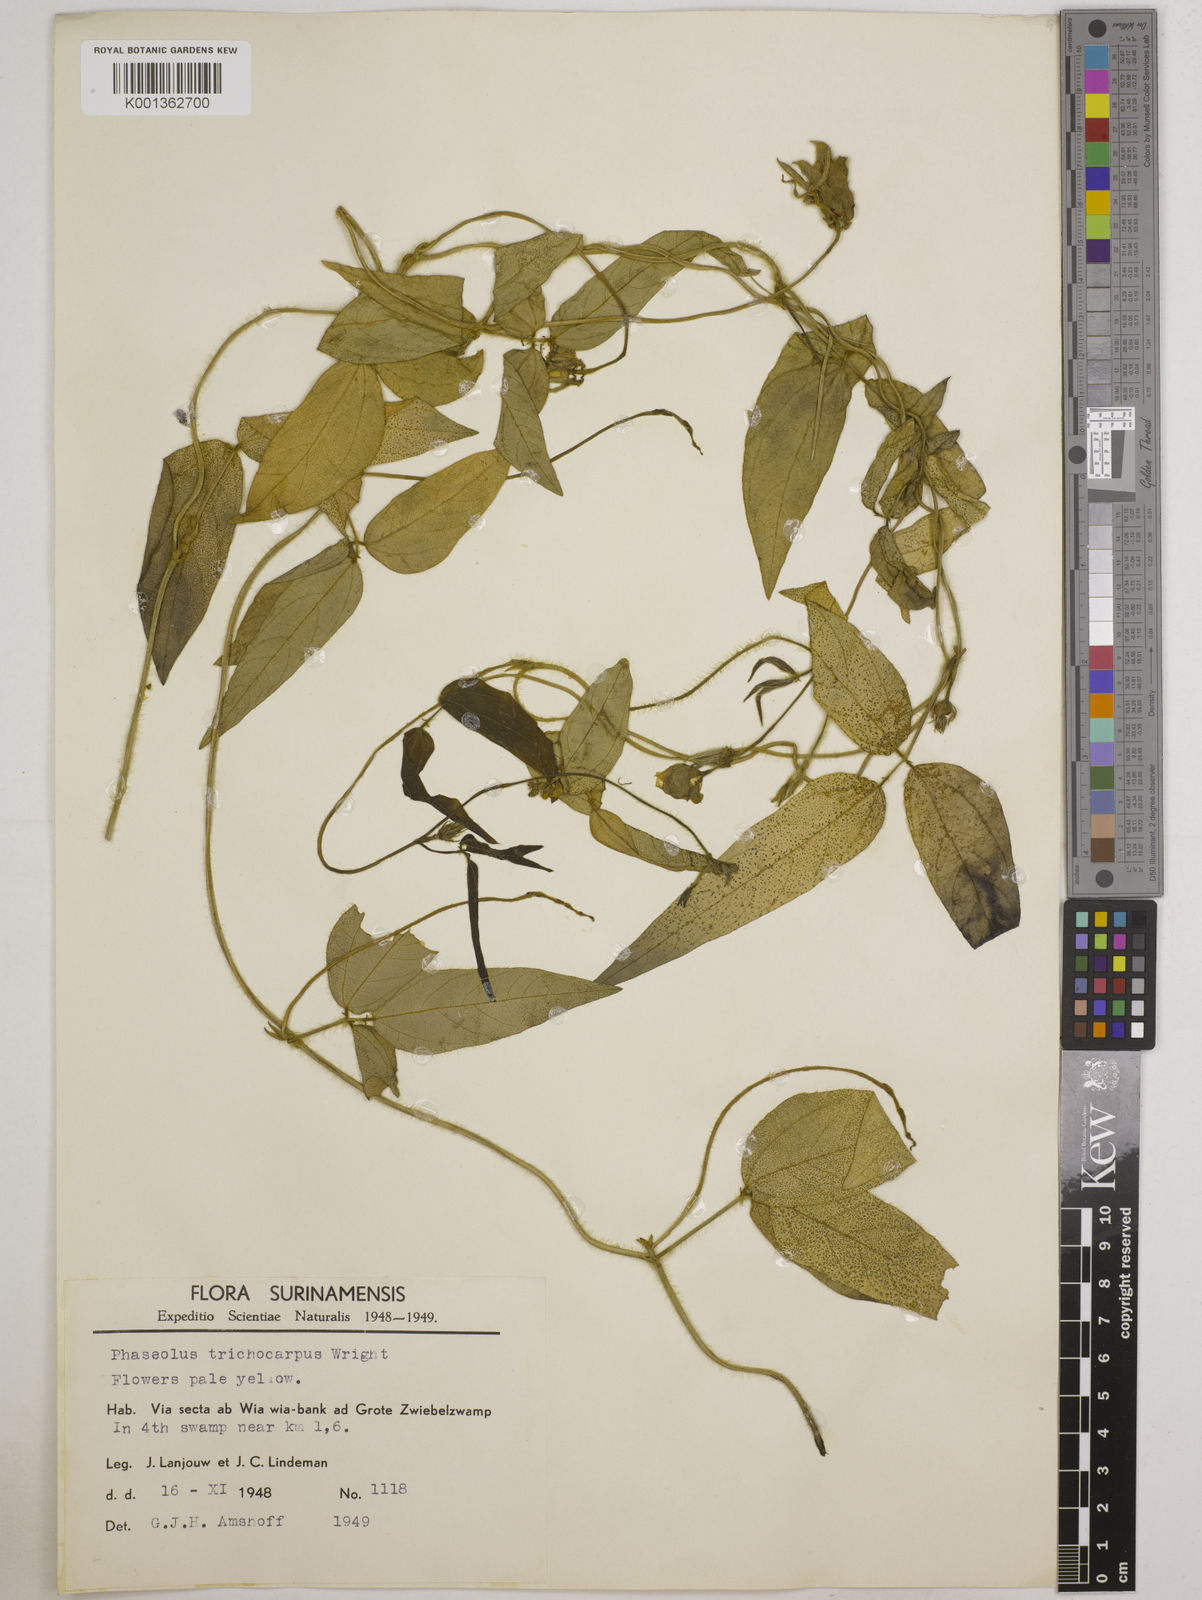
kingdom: Plantae
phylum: Tracheophyta
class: Magnoliopsida
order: Fabales
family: Fabaceae
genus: Vigna
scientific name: Vigna trichocarpa
